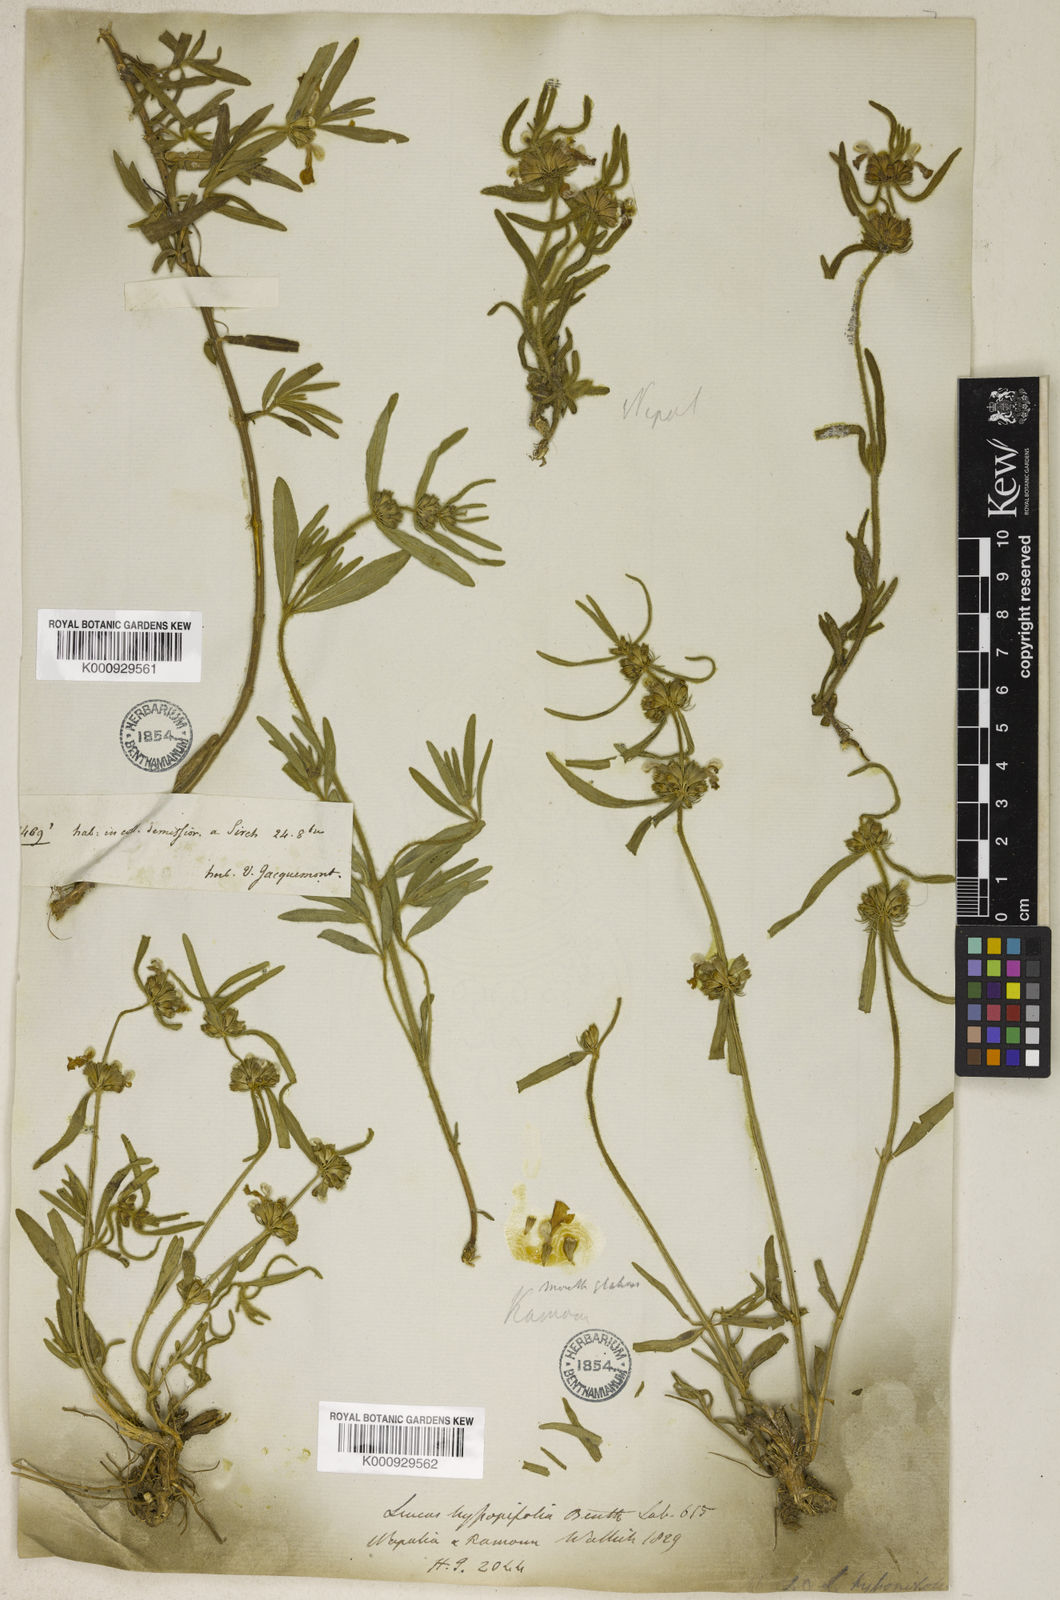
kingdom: Plantae
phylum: Tracheophyta
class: Magnoliopsida
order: Lamiales
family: Lamiaceae
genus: Leucas
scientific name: Leucas hyssopifolia
